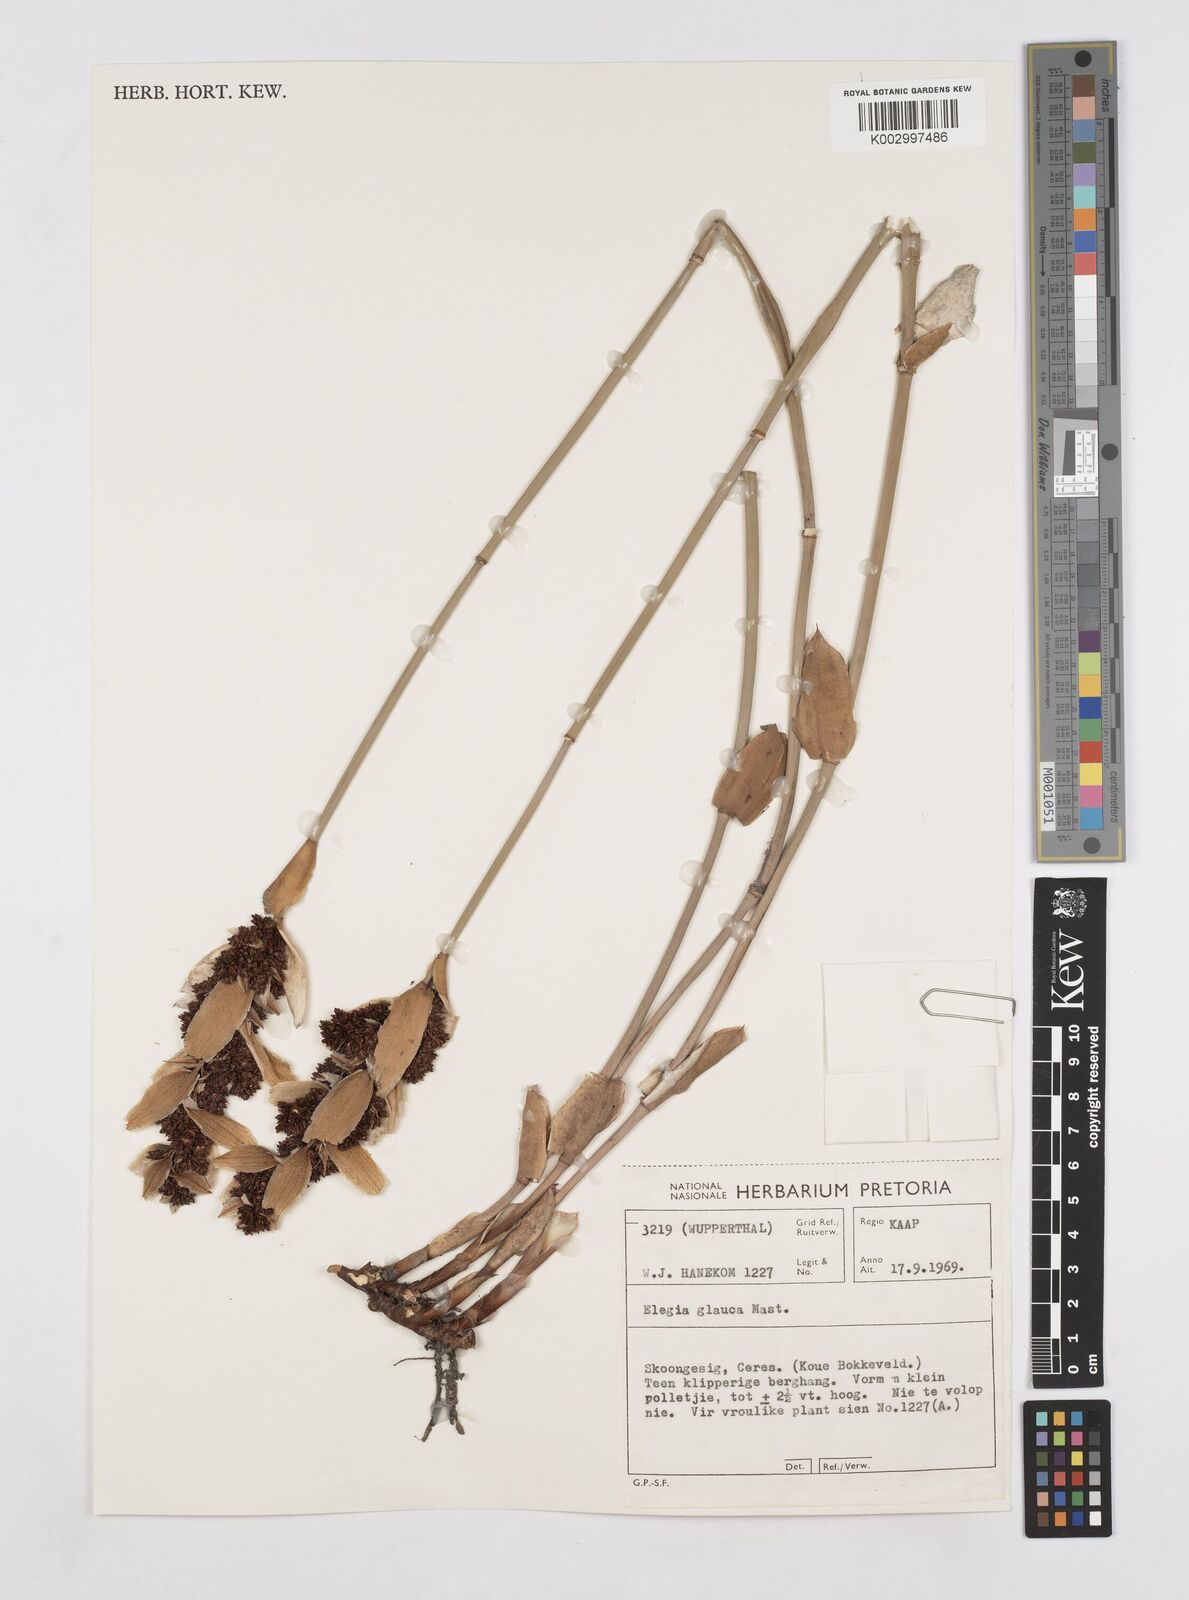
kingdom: Plantae
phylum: Tracheophyta
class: Liliopsida
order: Poales
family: Restionaceae
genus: Elegia
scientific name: Elegia asperiflora
